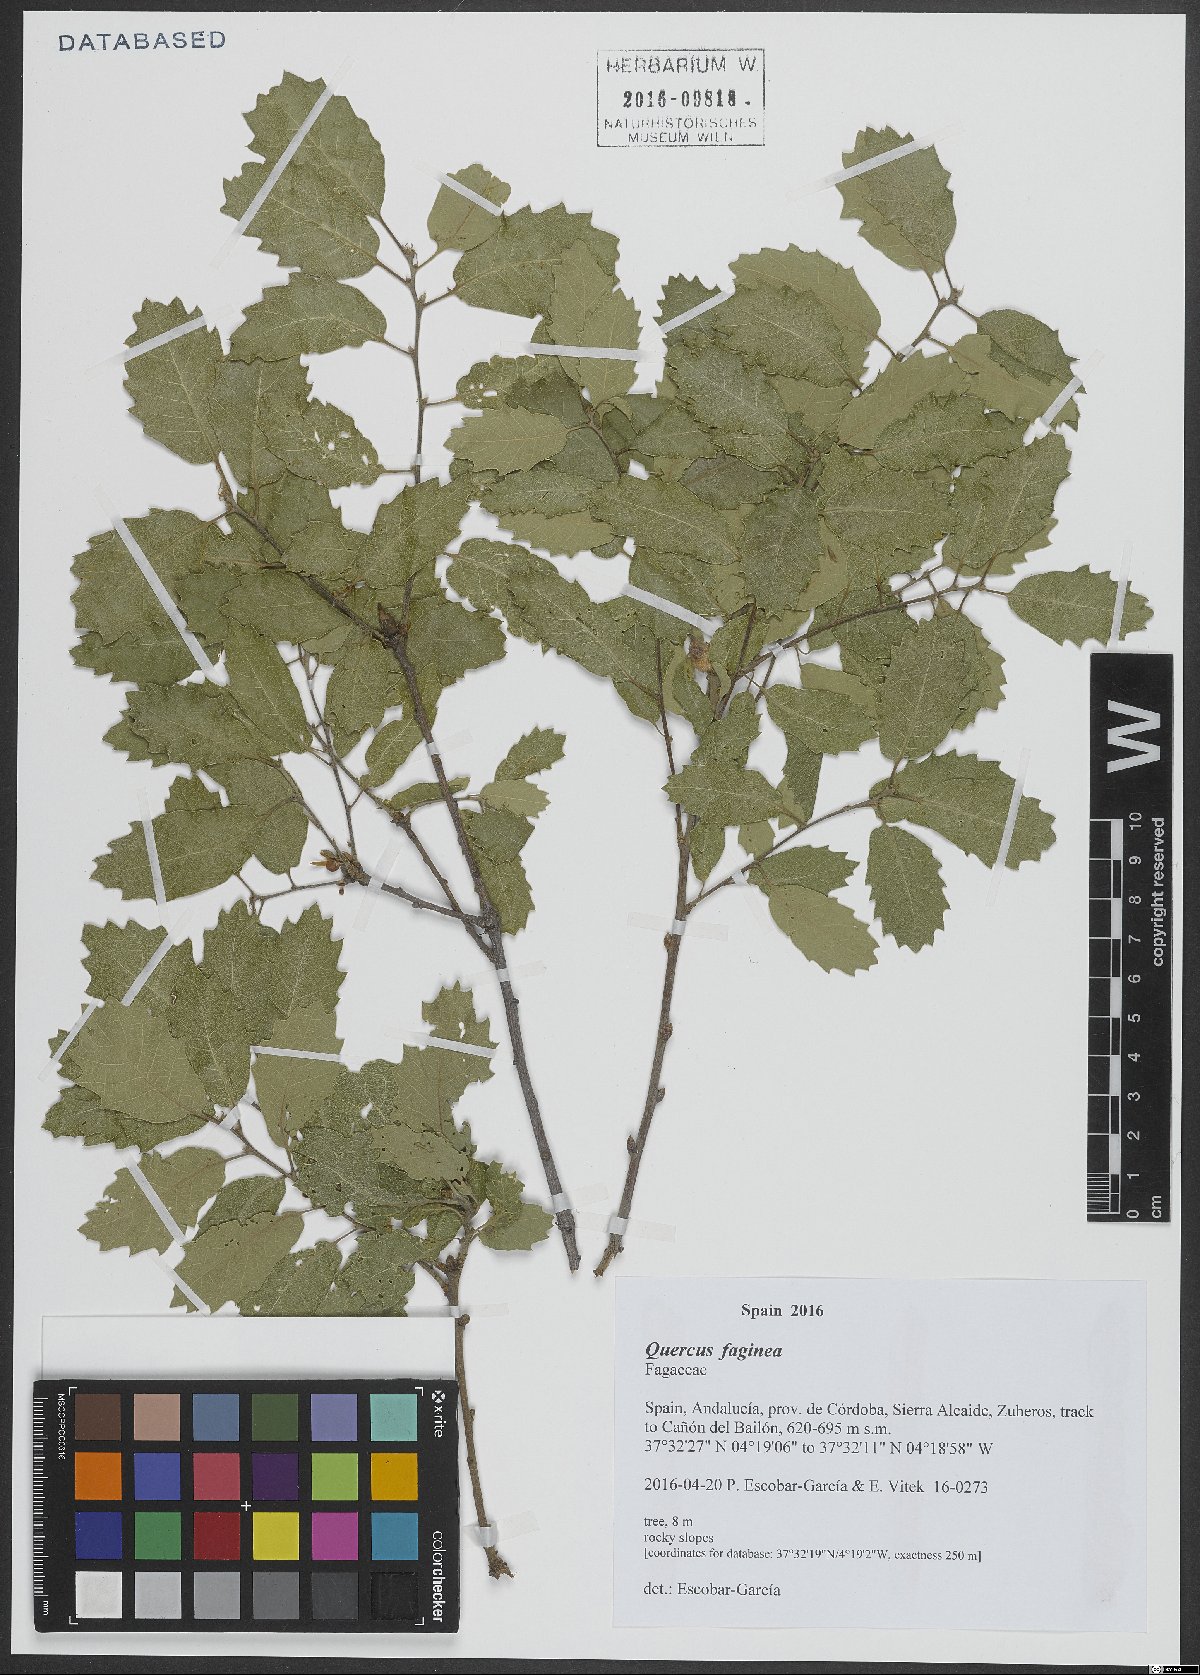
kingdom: Plantae
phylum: Tracheophyta
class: Magnoliopsida
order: Fagales
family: Fagaceae
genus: Quercus
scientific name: Quercus faginea
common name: Gall oak tree
